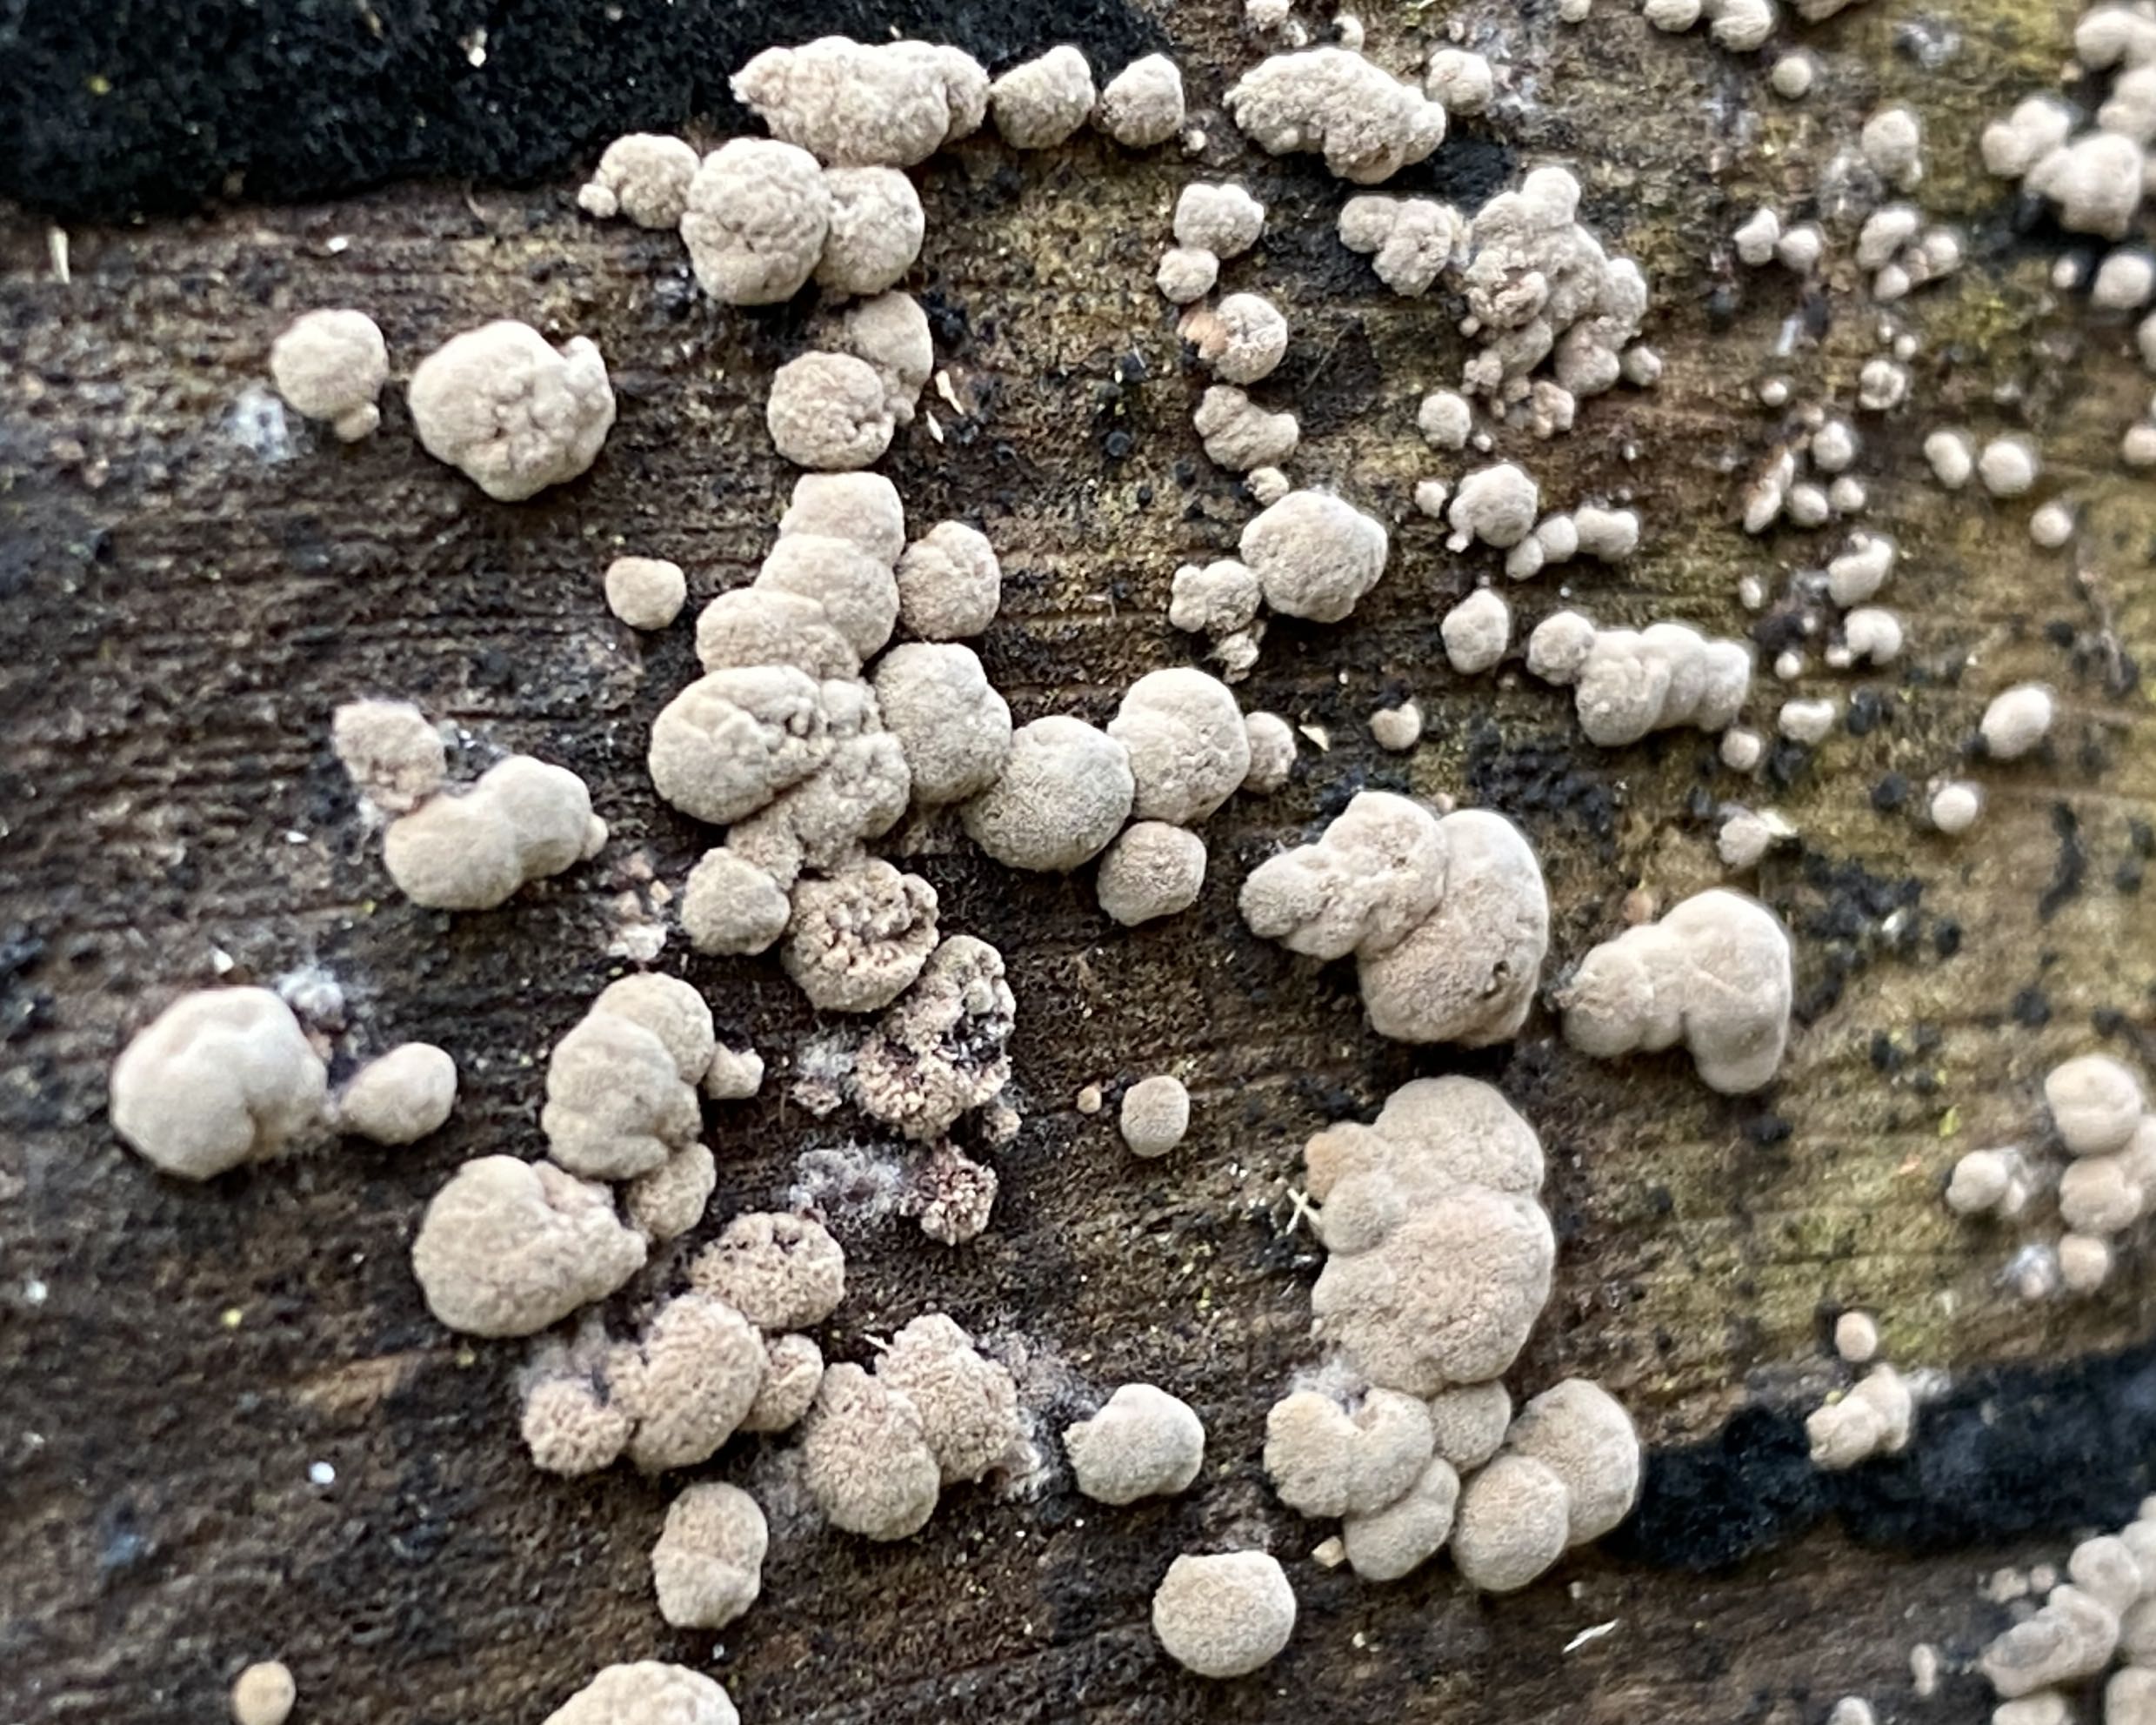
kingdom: Fungi
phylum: Ascomycota
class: Sordariomycetes
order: Xylariales
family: Hypoxylaceae
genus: Hypoxylon
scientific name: Hypoxylon fragiforme
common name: kuljordbær
